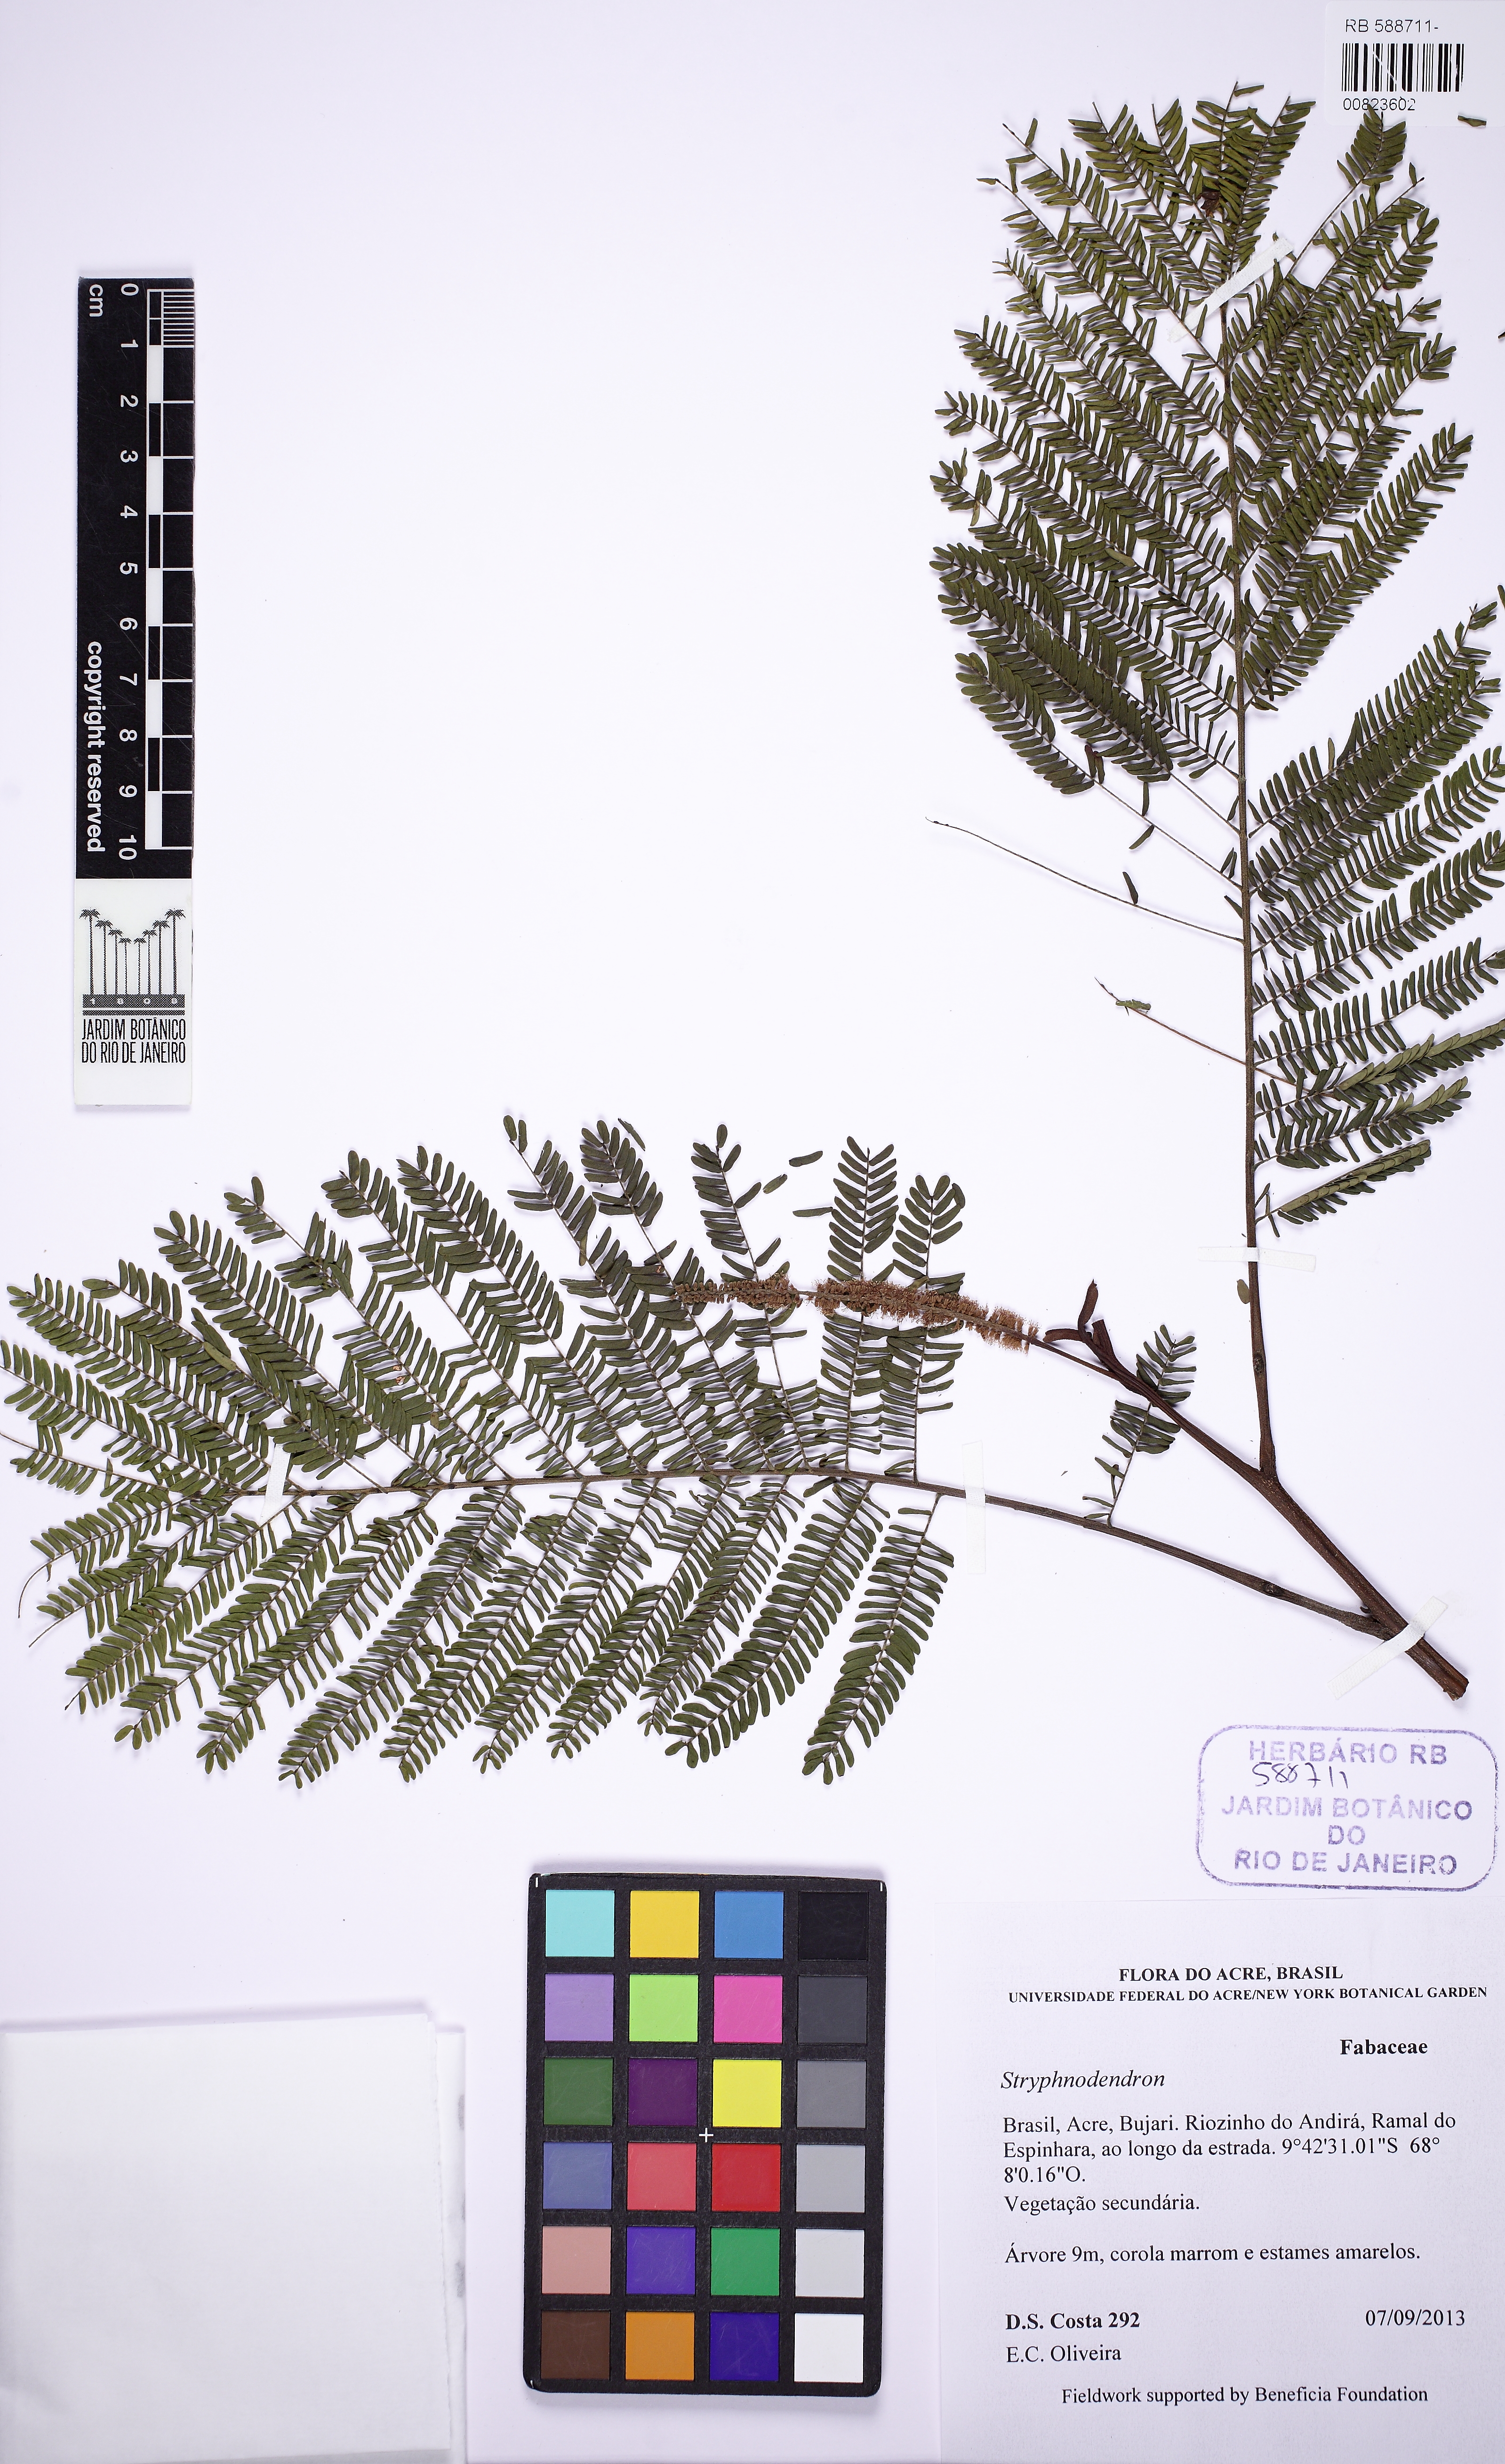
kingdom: Plantae
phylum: Tracheophyta
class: Magnoliopsida
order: Fabales
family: Fabaceae
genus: Stryphnodendron
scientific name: Stryphnodendron
